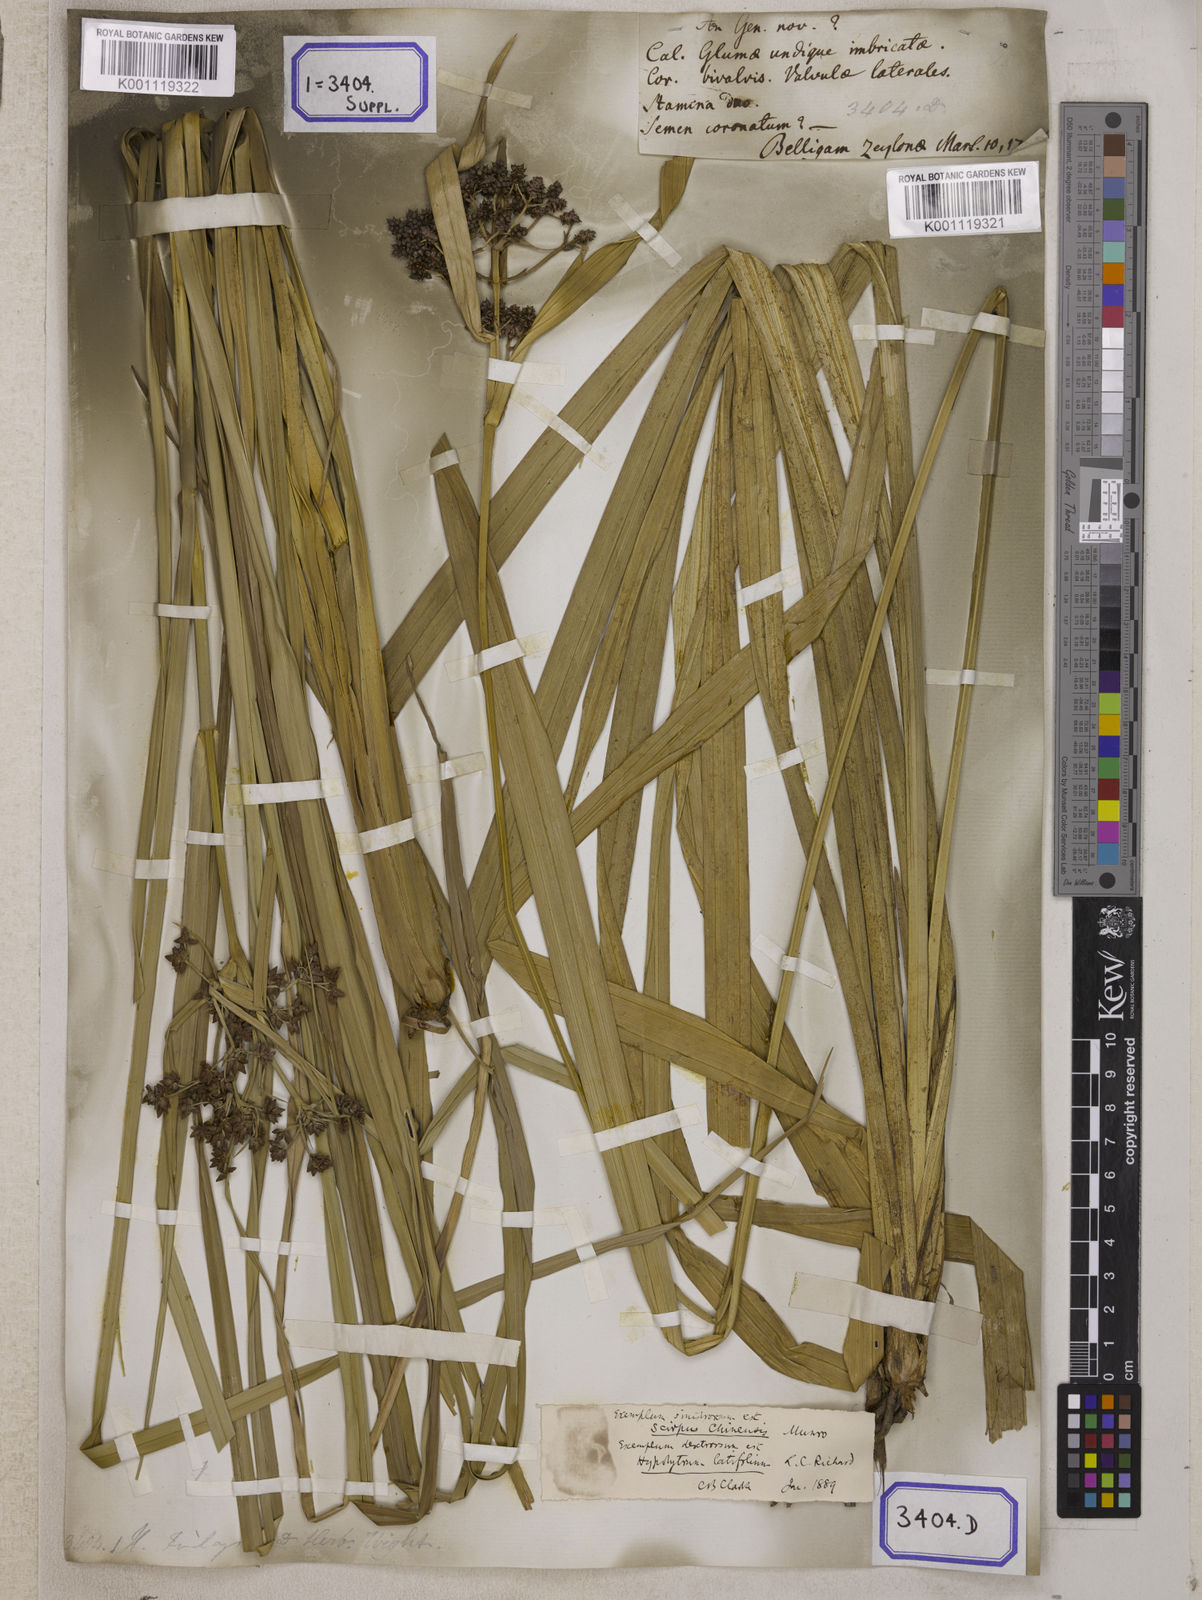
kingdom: Plantae
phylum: Tracheophyta
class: Liliopsida
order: Poales
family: Cyperaceae
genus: Hypolytrum
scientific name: Hypolytrum
